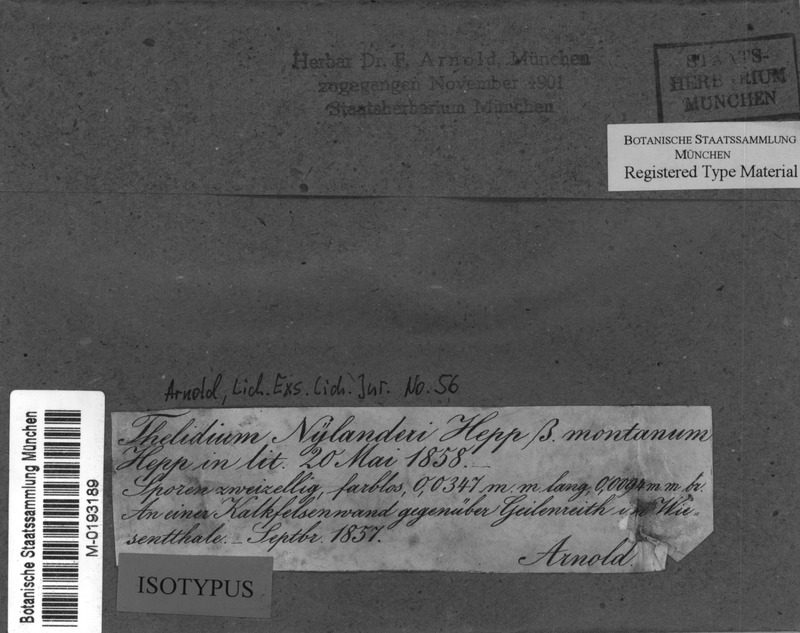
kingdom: Fungi
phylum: Ascomycota
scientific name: Ascomycota
